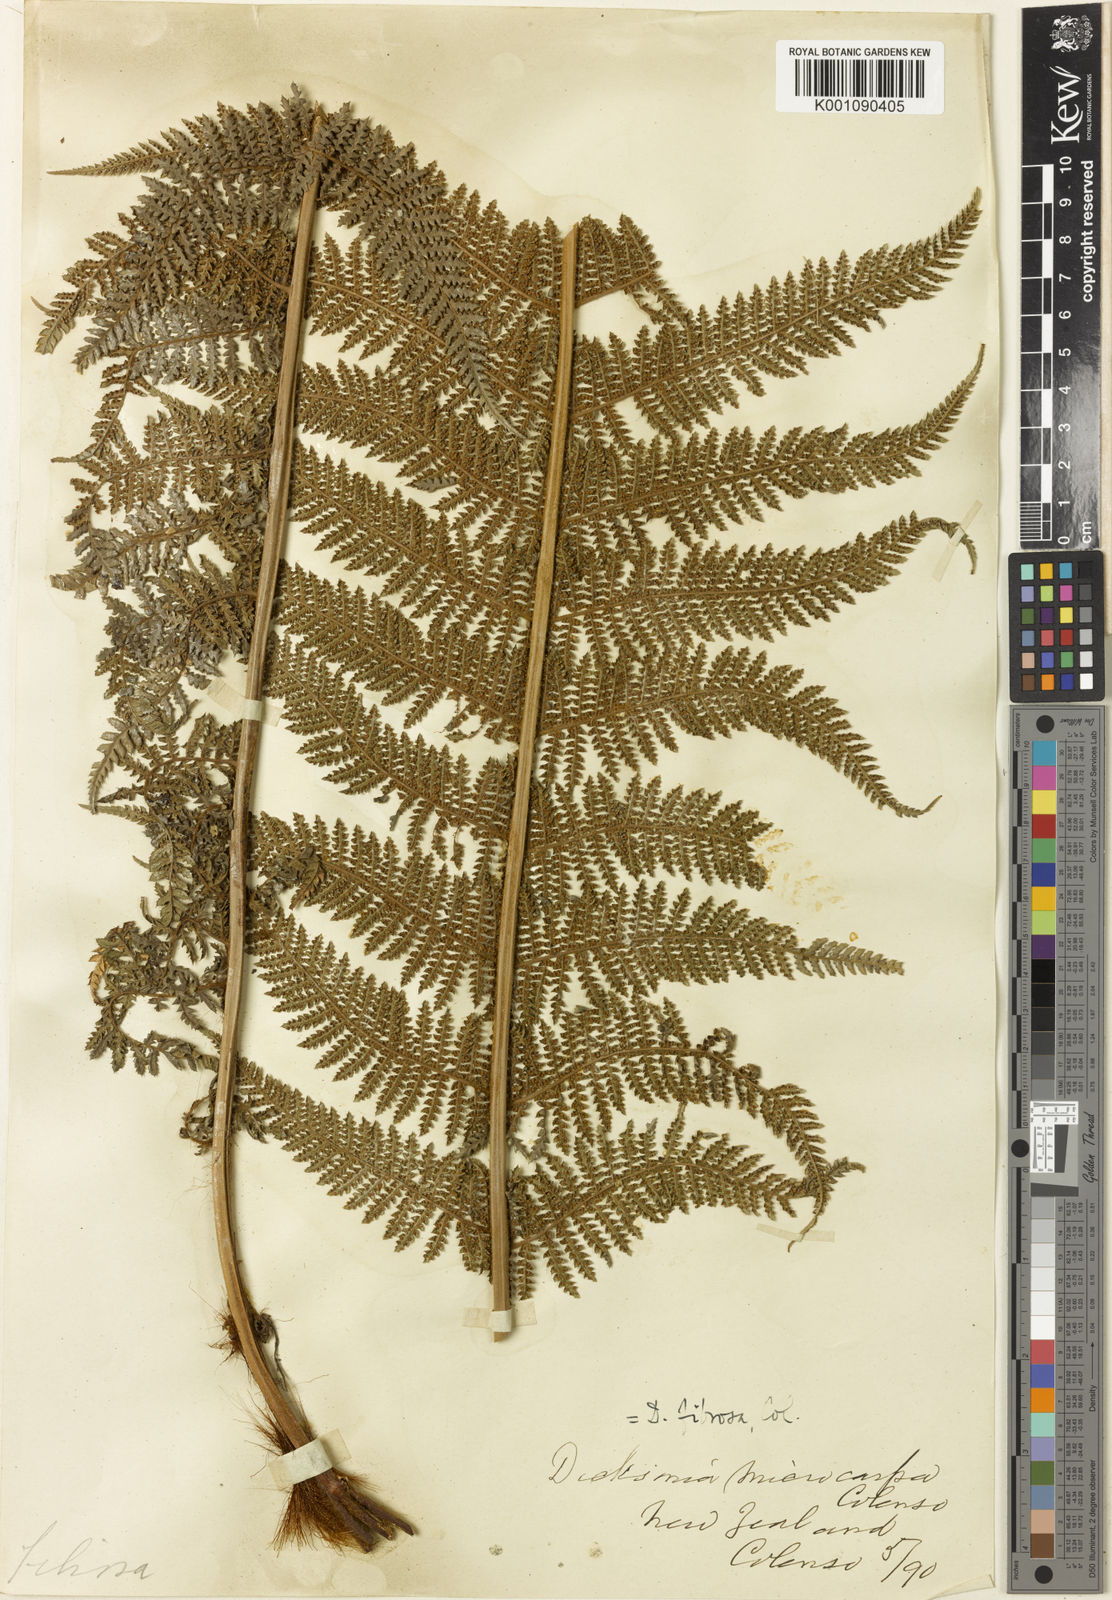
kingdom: Plantae
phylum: Tracheophyta
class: Polypodiopsida
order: Cyatheales
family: Dicksoniaceae
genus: Dicksonia
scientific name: Dicksonia fibrosa
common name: Golden tree fern
